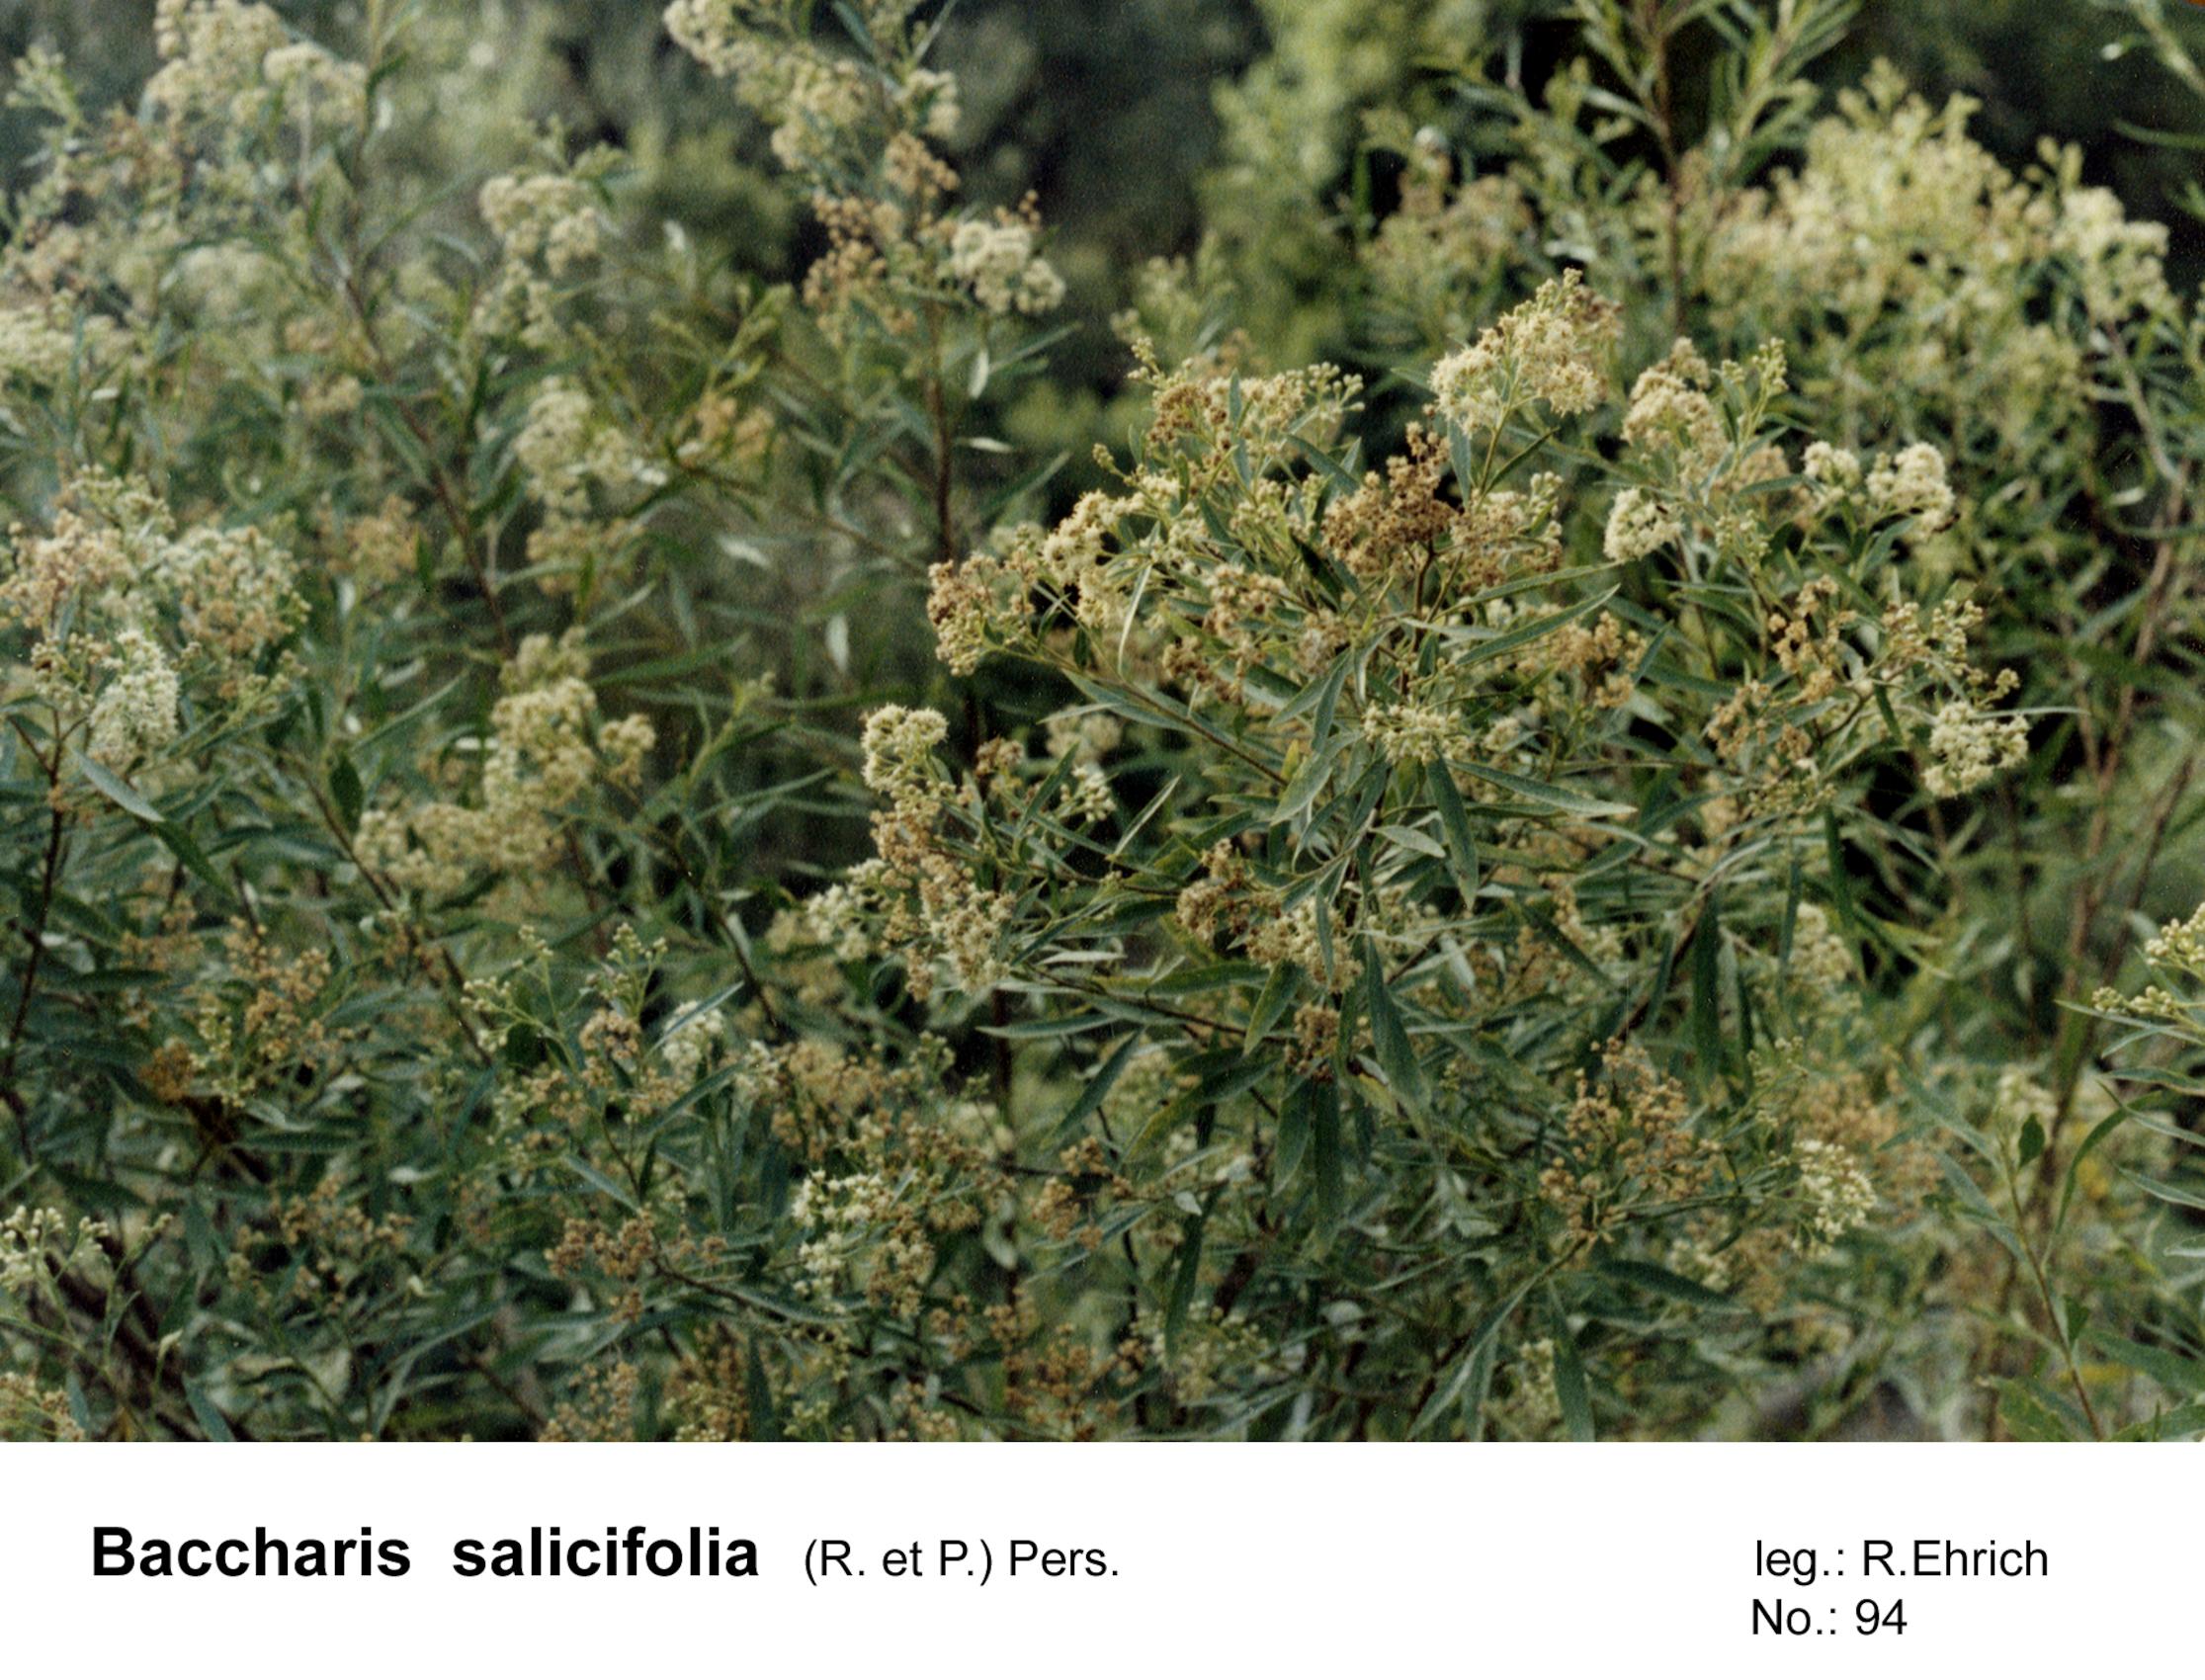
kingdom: Plantae
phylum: Tracheophyta
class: Magnoliopsida
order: Asterales
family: Asteraceae
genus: Baccharis
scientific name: Baccharis salicifolia
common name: Sticky baccharis
